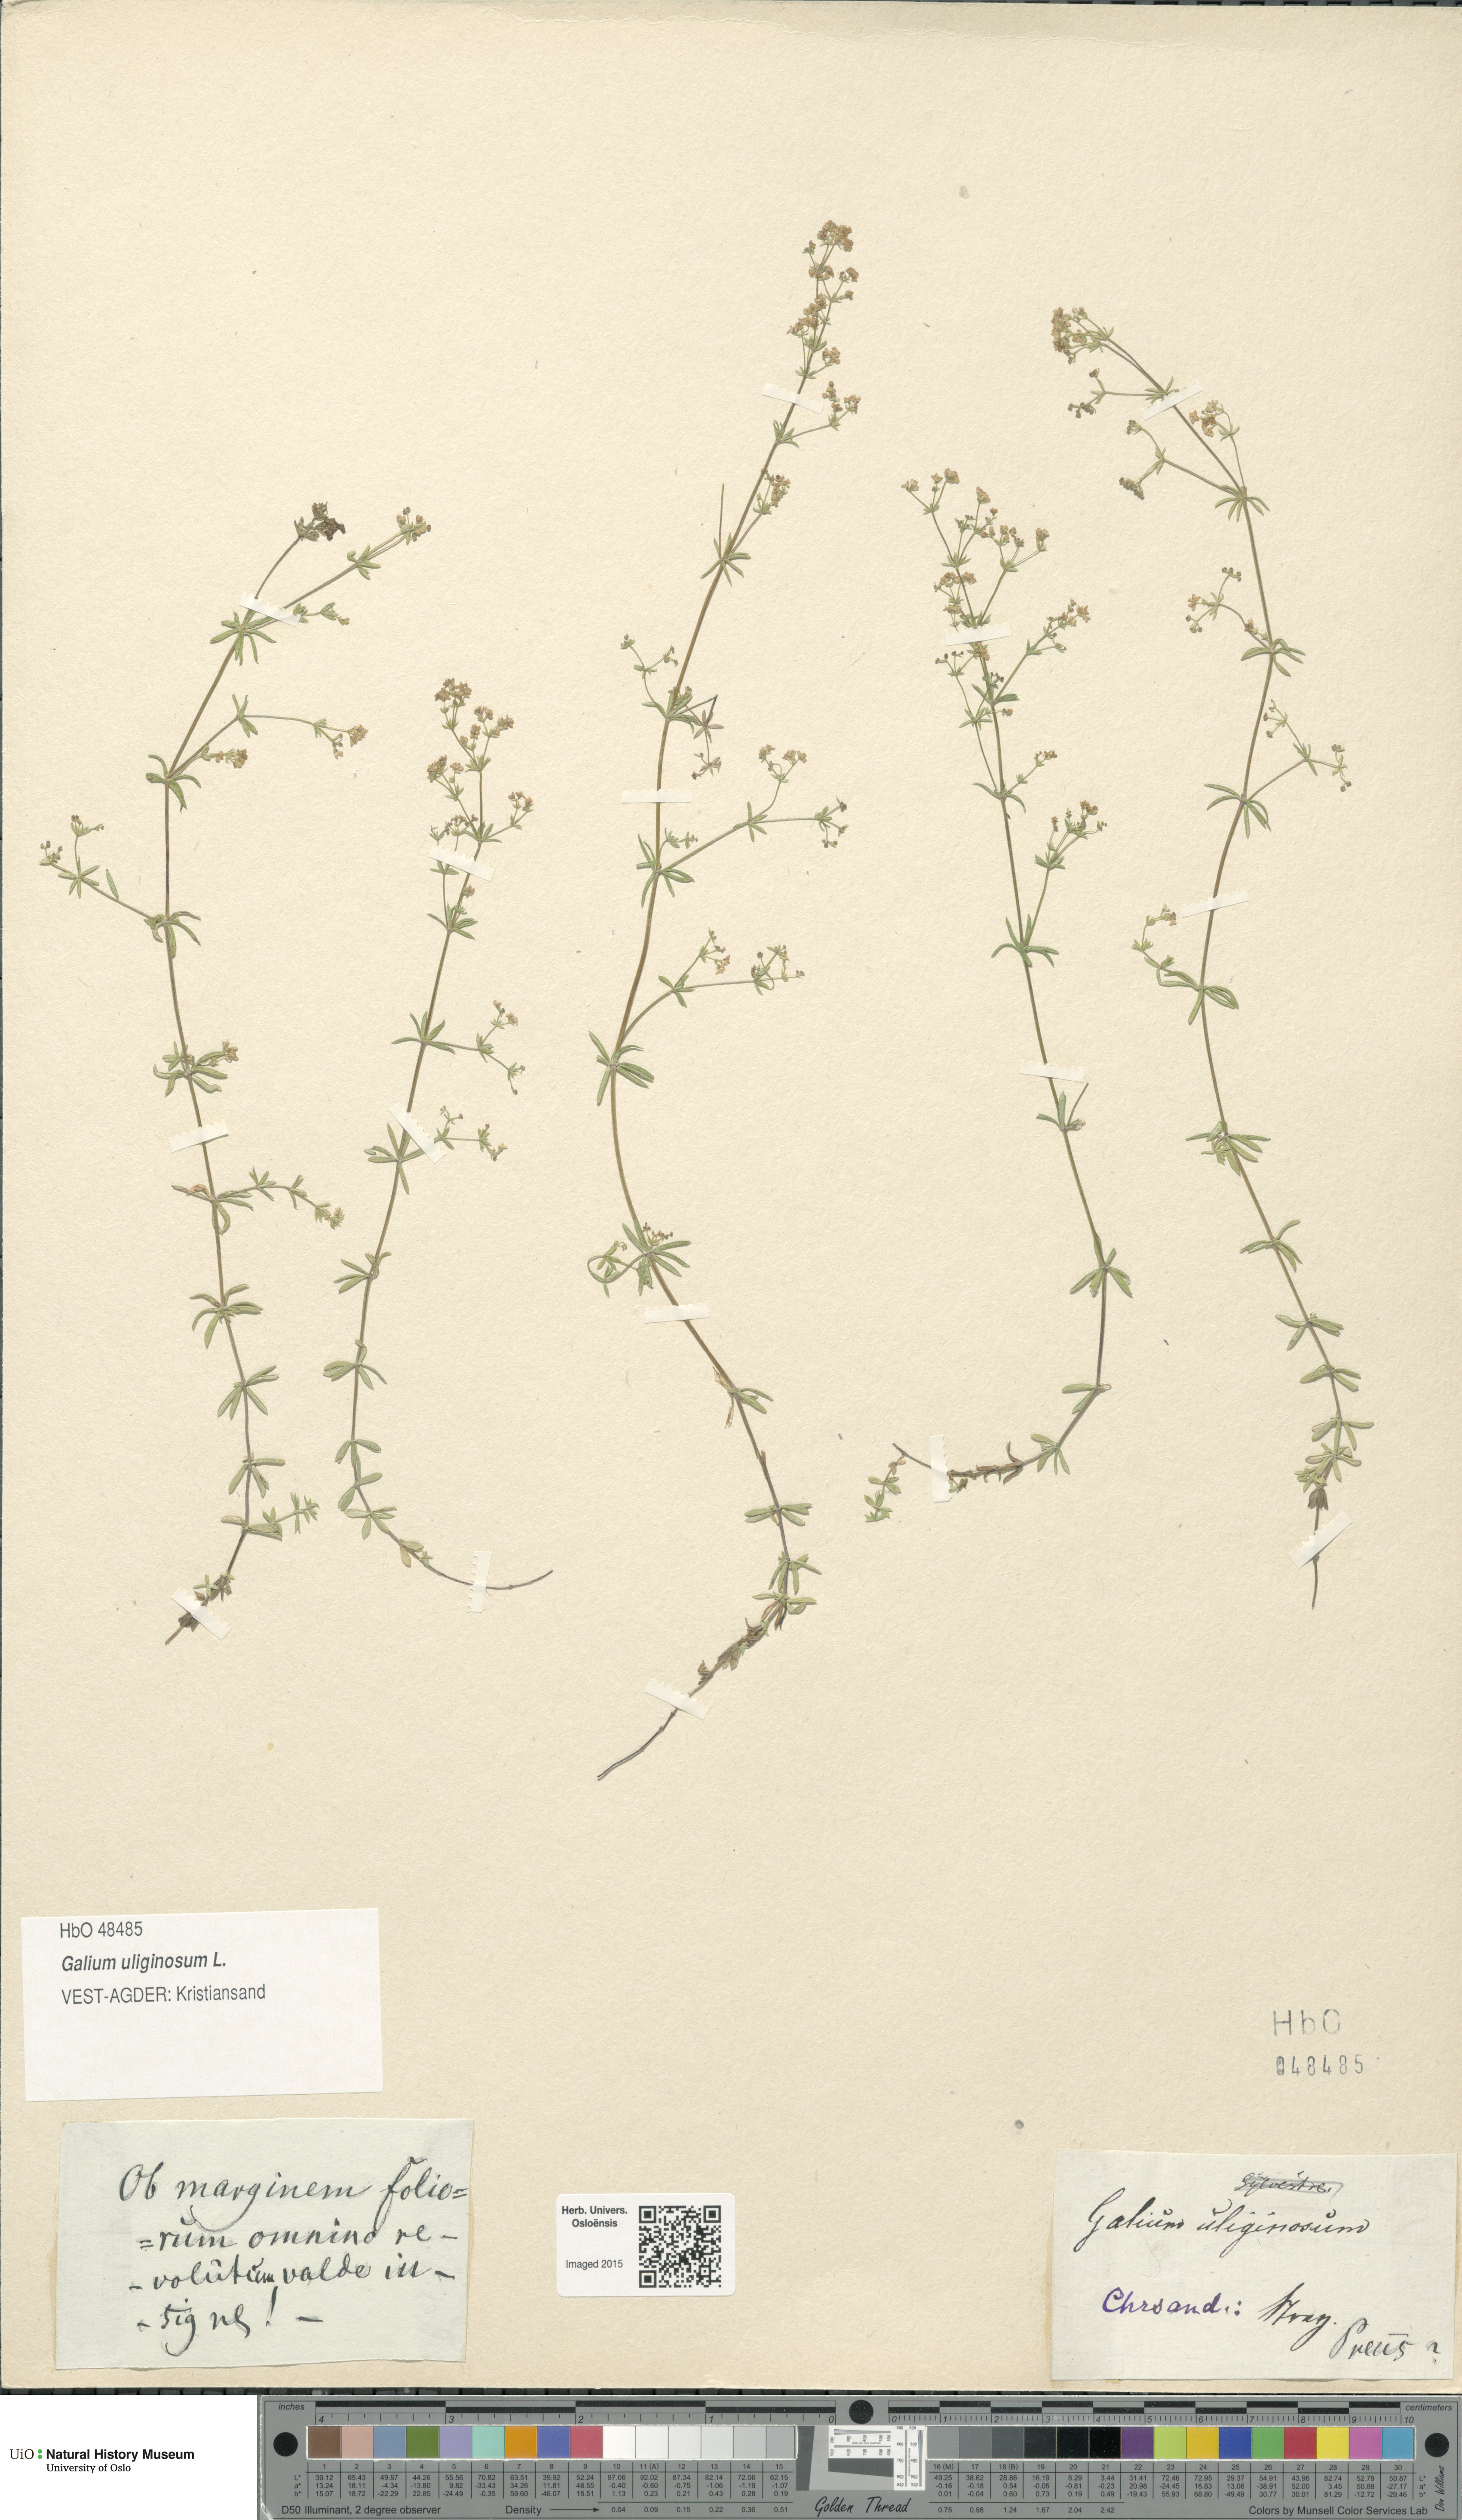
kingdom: Plantae
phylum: Tracheophyta
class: Magnoliopsida
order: Gentianales
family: Rubiaceae
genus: Galium
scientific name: Galium uliginosum
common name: Fen bedstraw
